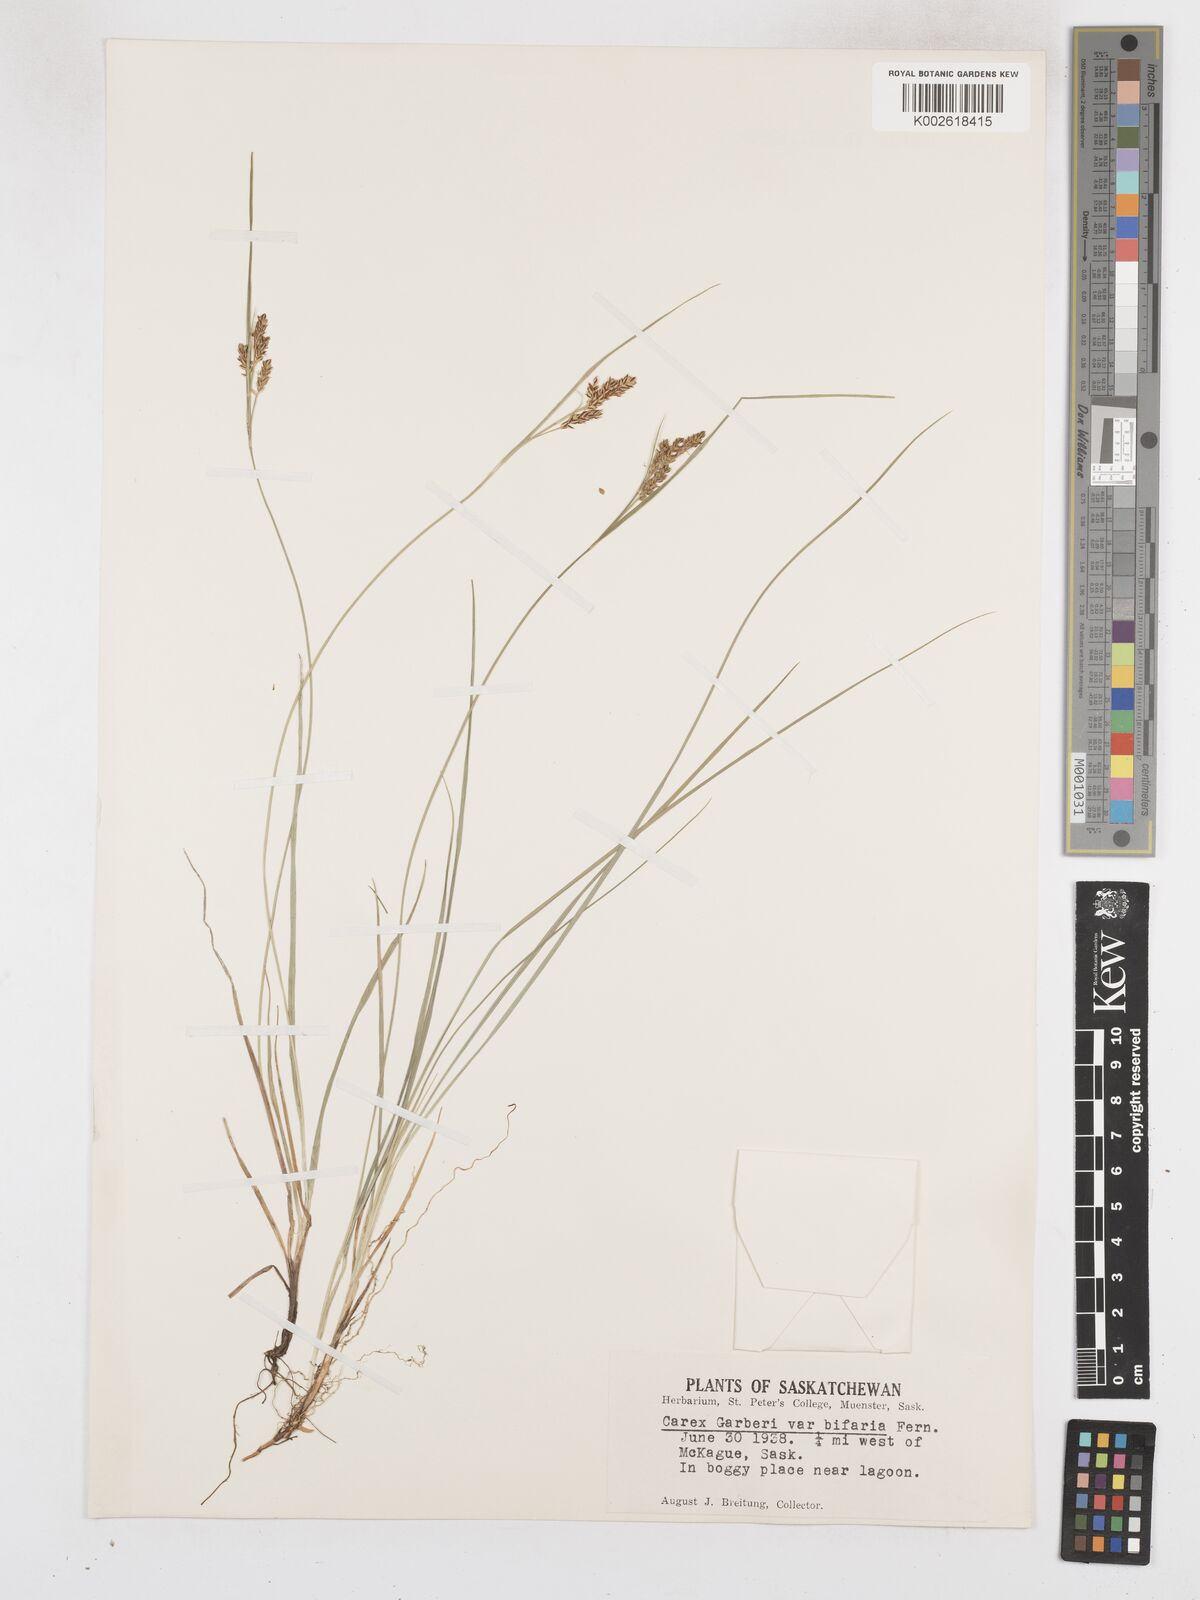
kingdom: Plantae
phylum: Tracheophyta
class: Liliopsida
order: Poales
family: Cyperaceae
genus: Carex
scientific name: Carex garberi
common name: Elk sedge
